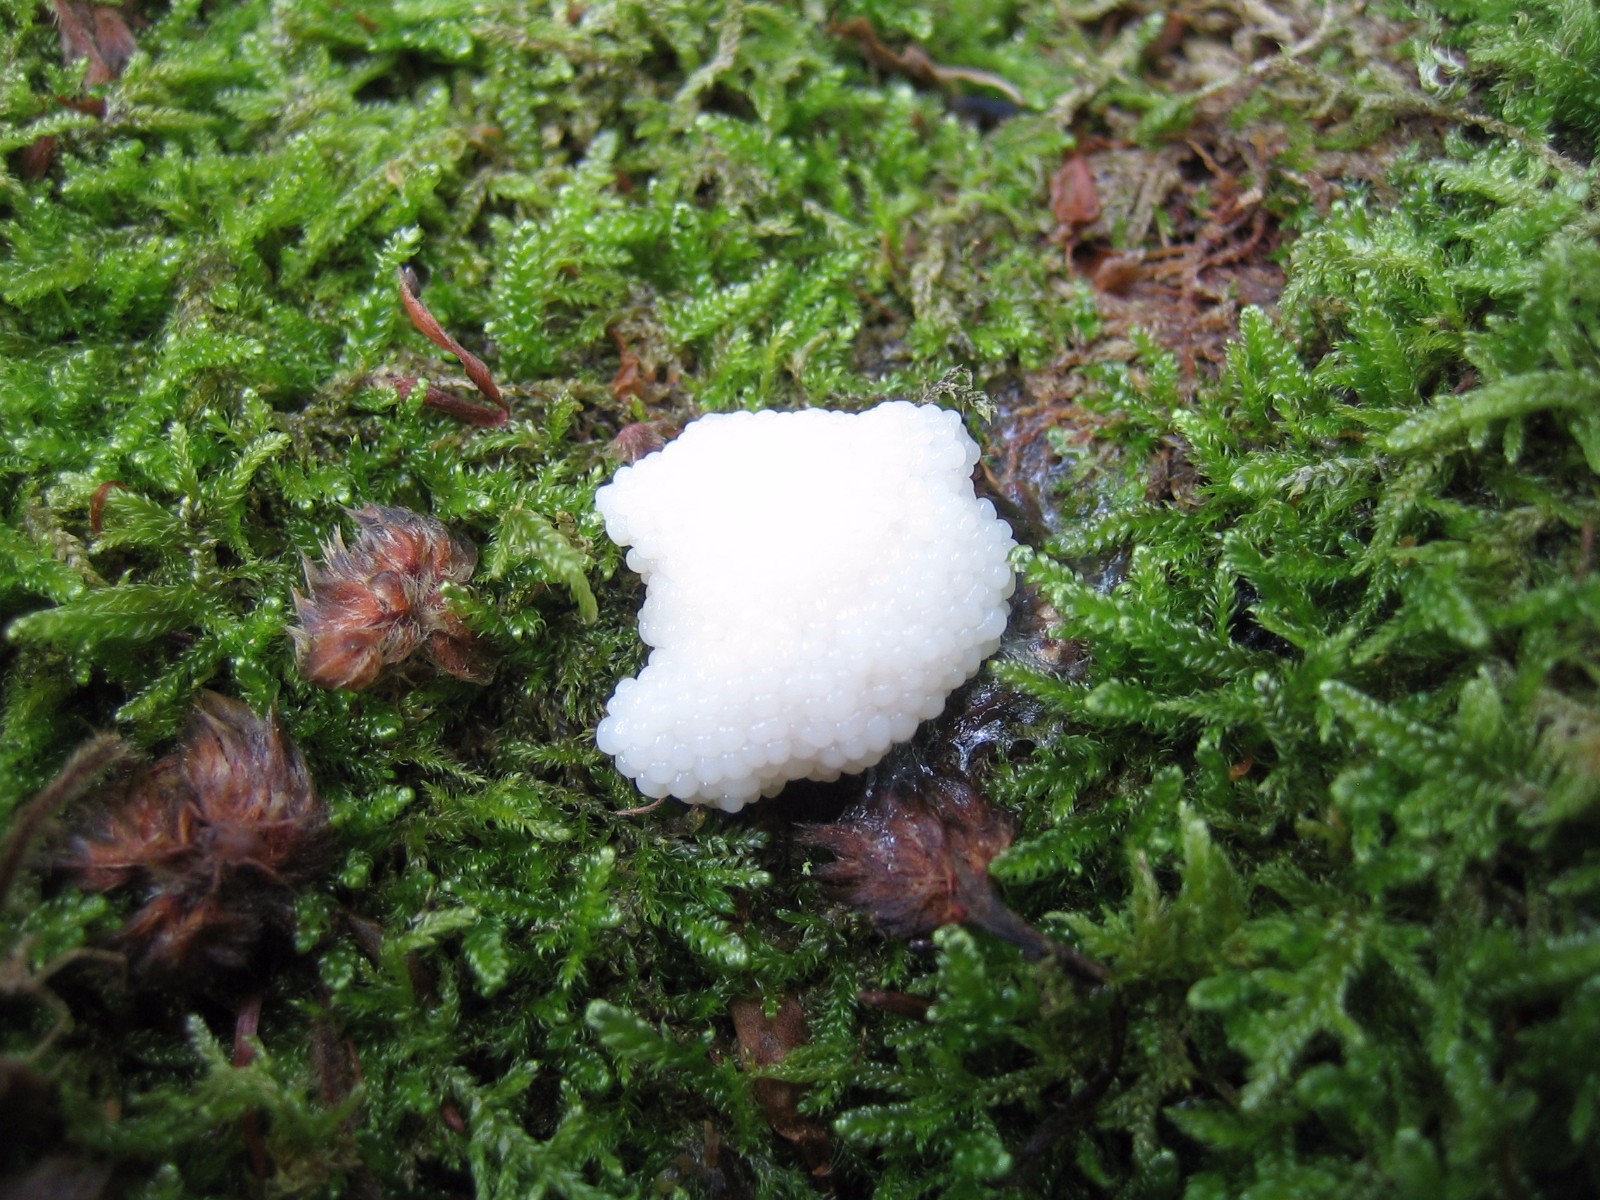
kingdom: Protozoa
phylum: Mycetozoa
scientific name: Mycetozoa
